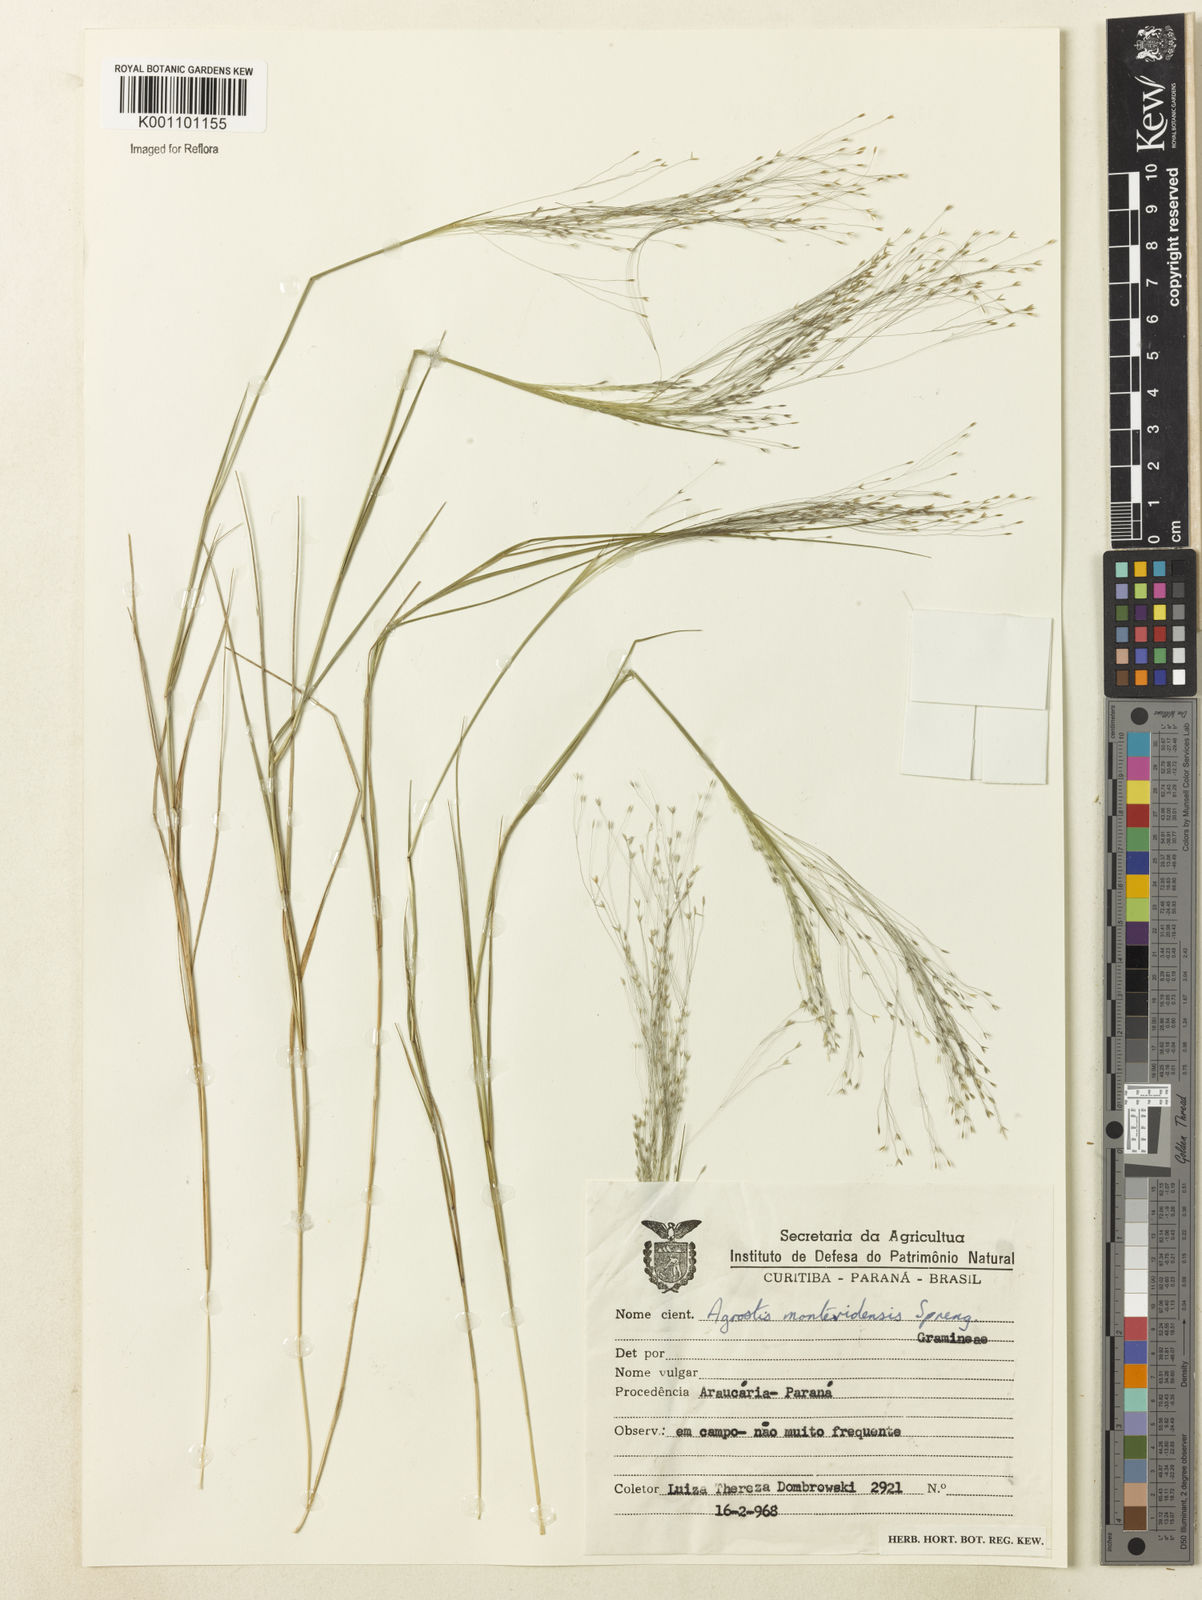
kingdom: Plantae
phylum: Tracheophyta
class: Liliopsida
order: Poales
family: Poaceae
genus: Agrostis
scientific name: Agrostis montevidensis
